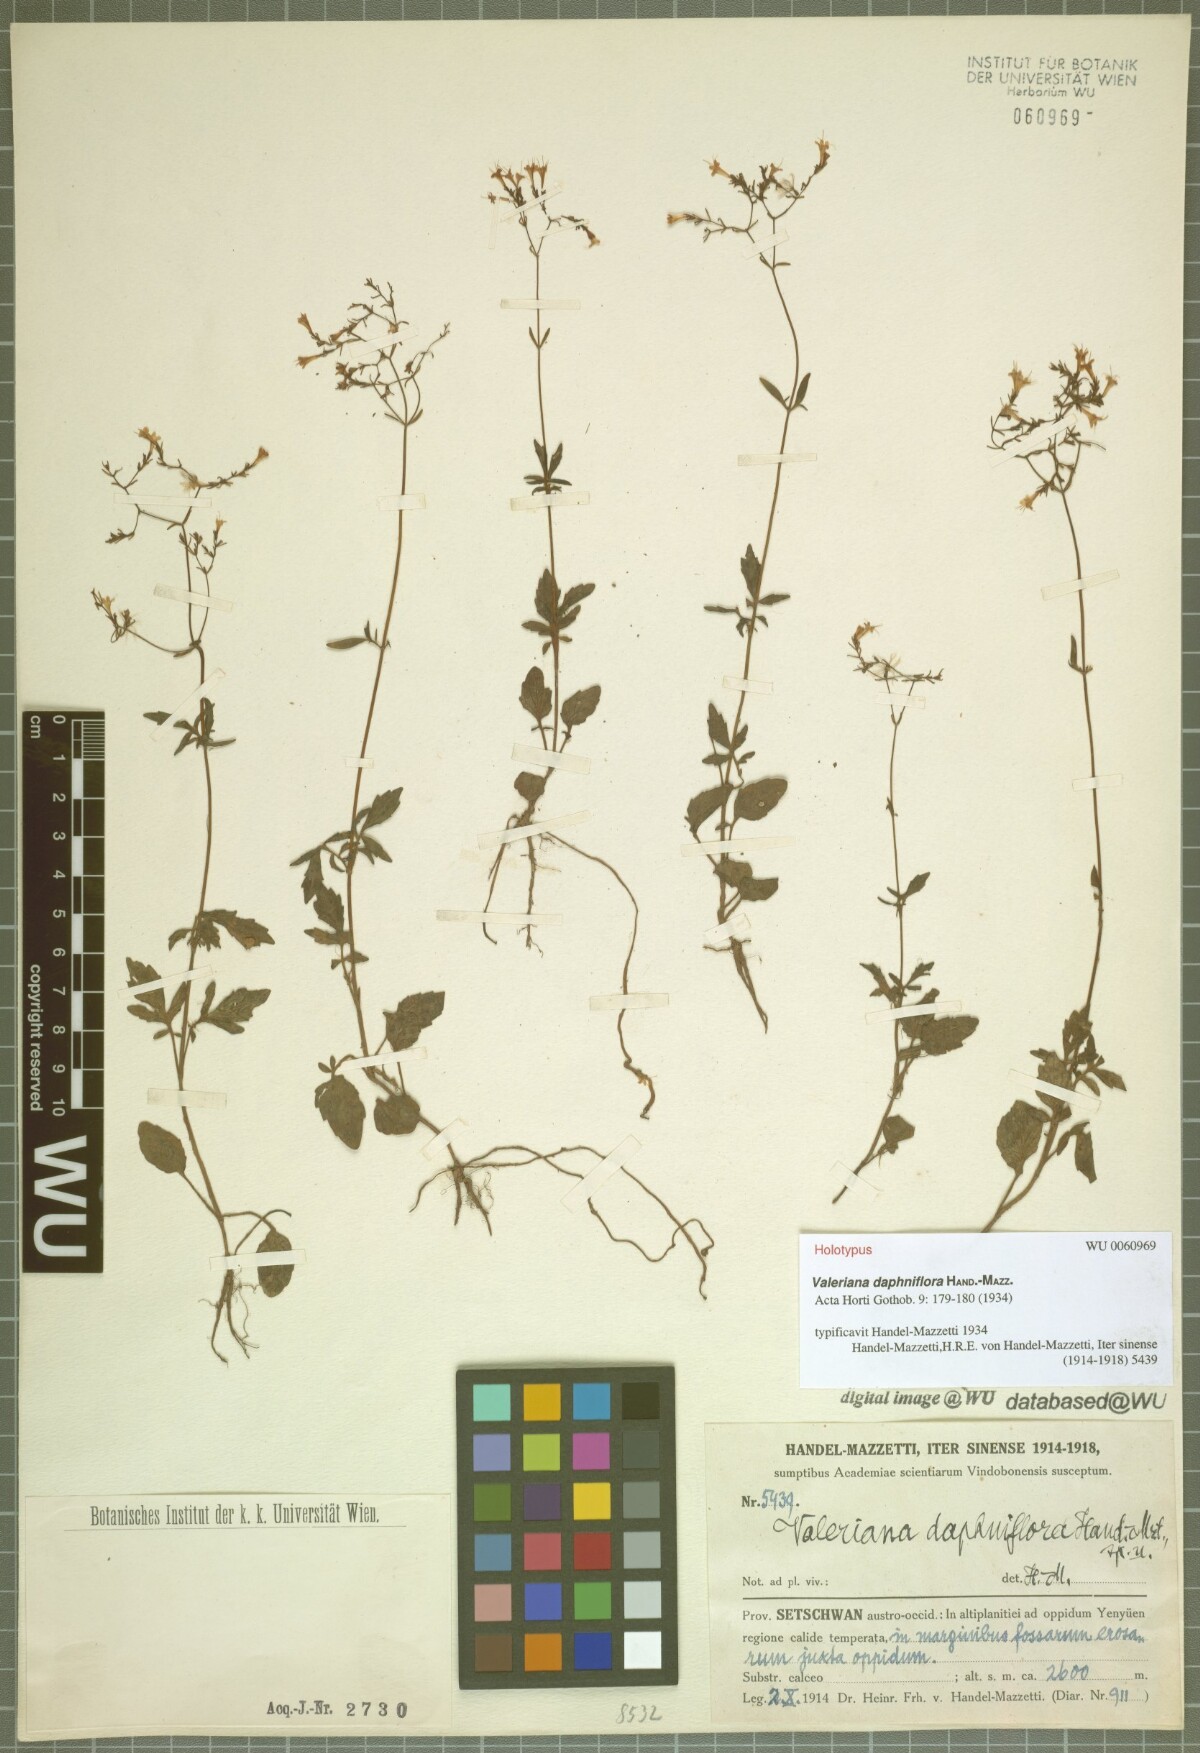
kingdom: Plantae
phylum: Tracheophyta
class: Magnoliopsida
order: Dipsacales
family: Caprifoliaceae
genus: Valeriana
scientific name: Valeriana daphniflora
